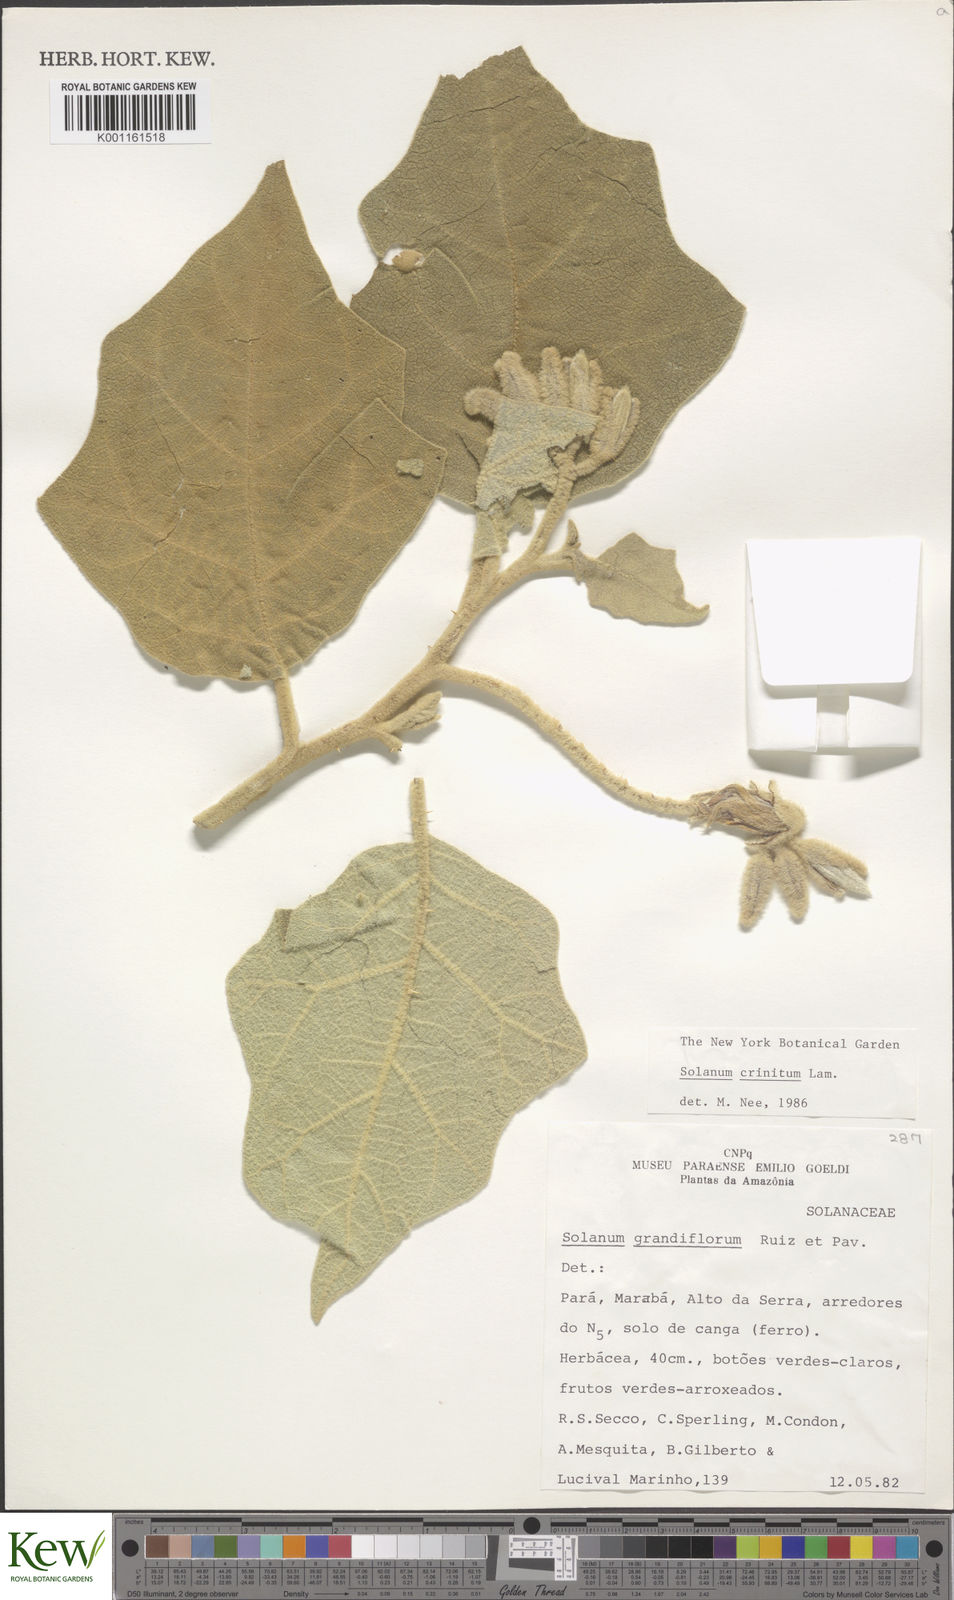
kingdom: Plantae
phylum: Tracheophyta
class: Magnoliopsida
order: Solanales
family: Solanaceae
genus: Solanum
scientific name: Solanum crinitum
